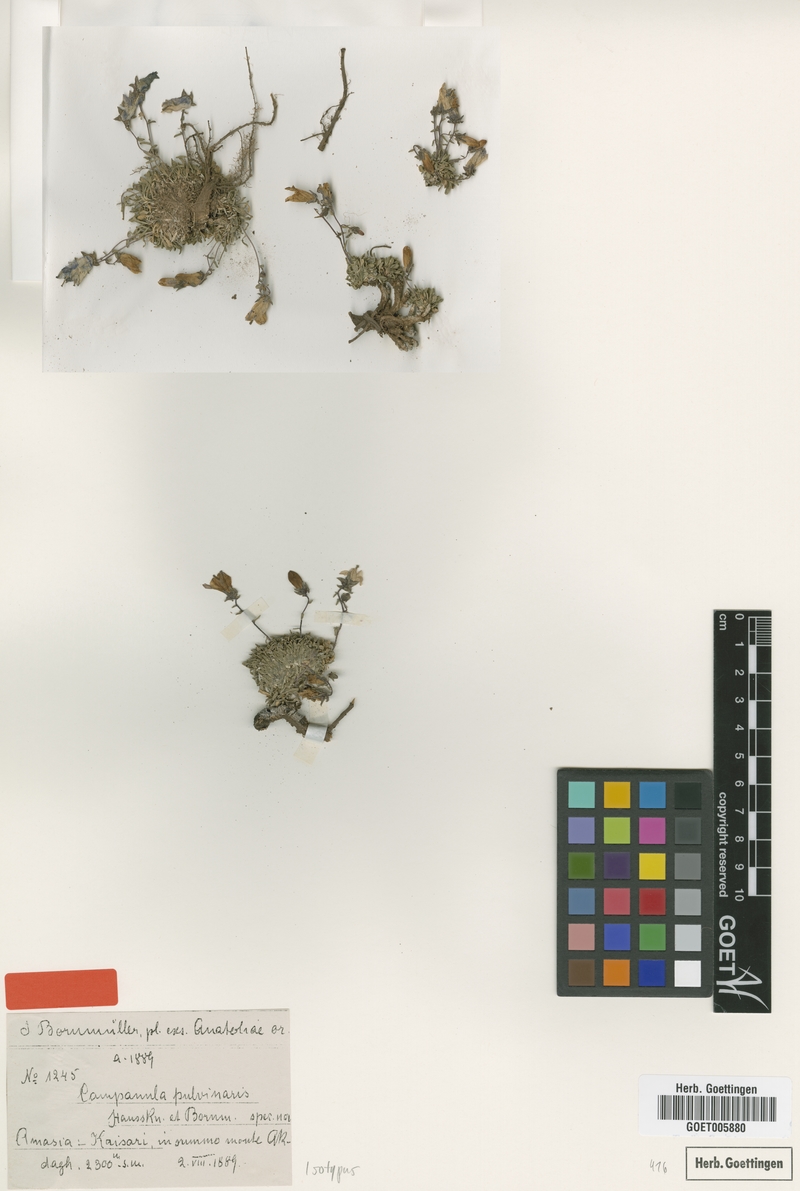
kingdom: Plantae
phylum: Tracheophyta
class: Magnoliopsida
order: Asterales
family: Campanulaceae
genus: Campanula
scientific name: Campanula pulvinaris
